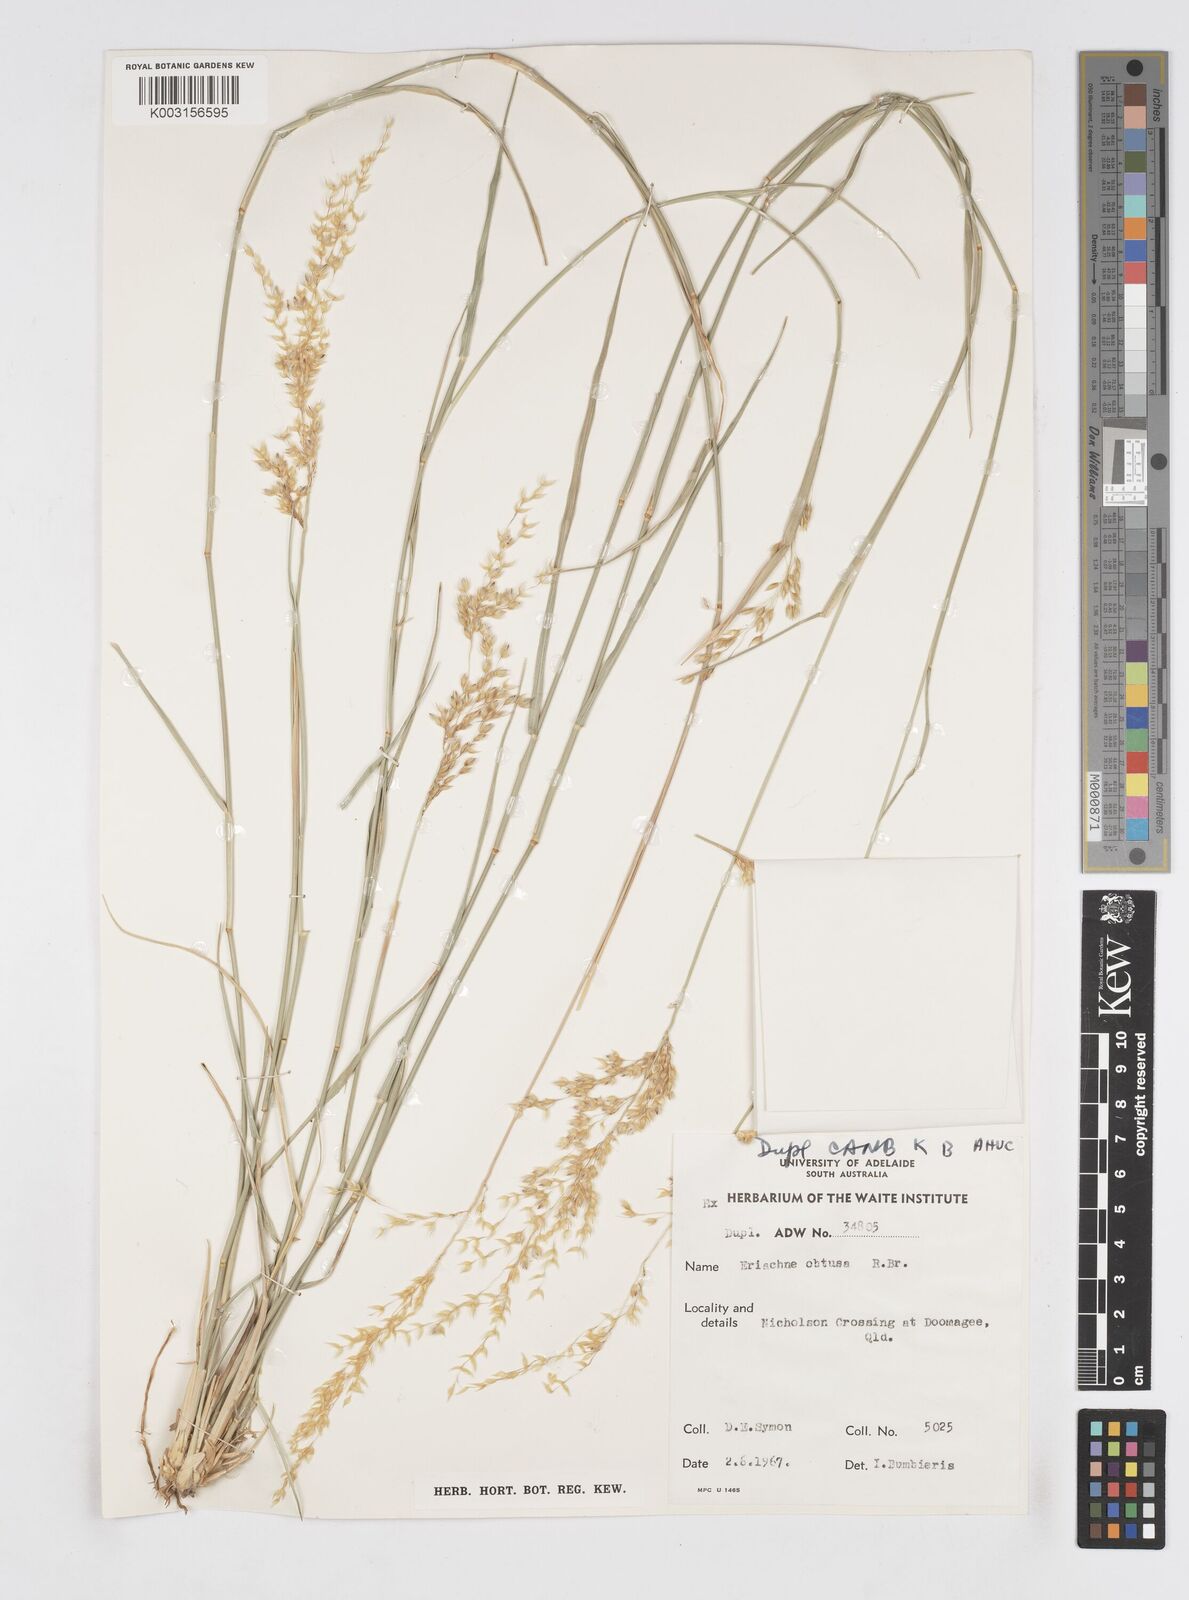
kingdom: Plantae
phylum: Tracheophyta
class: Liliopsida
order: Poales
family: Poaceae
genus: Eriachne
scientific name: Eriachne obtusa
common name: Northern wanderrie grass
